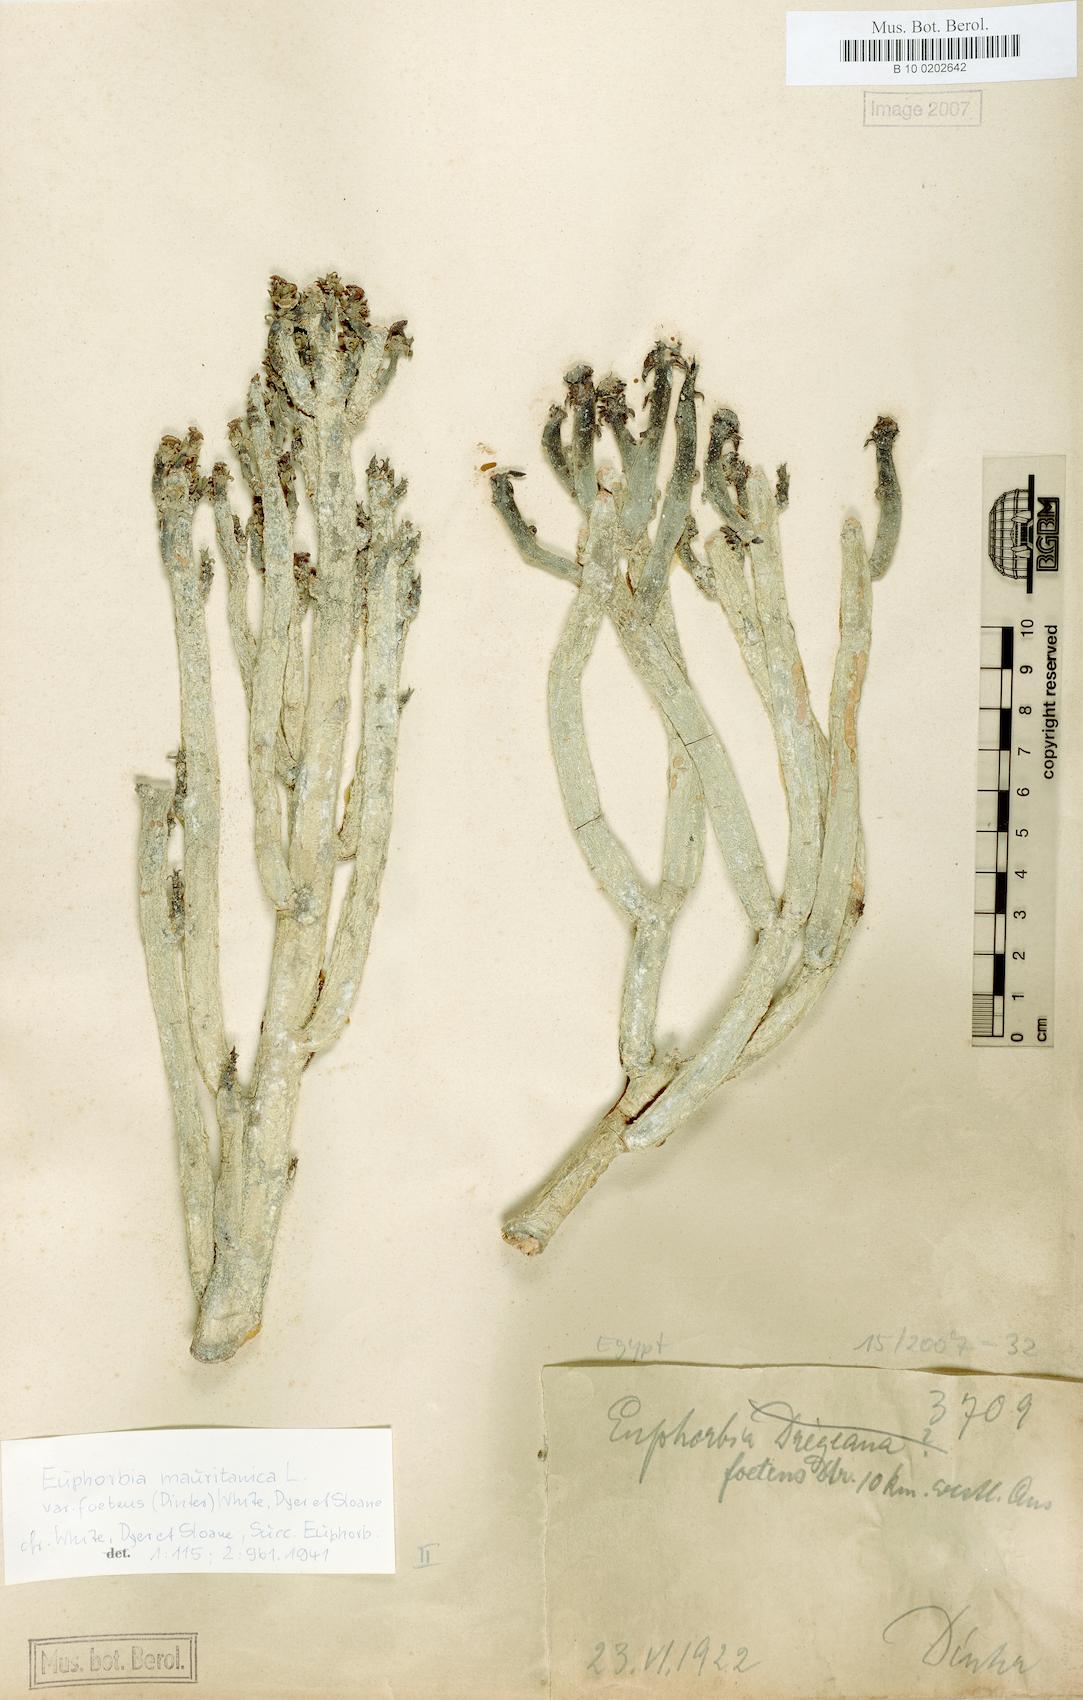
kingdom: Plantae
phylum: Tracheophyta
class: Magnoliopsida
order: Malpighiales
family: Euphorbiaceae
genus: Euphorbia
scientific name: Euphorbia mauritanica
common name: Jackal's-food
